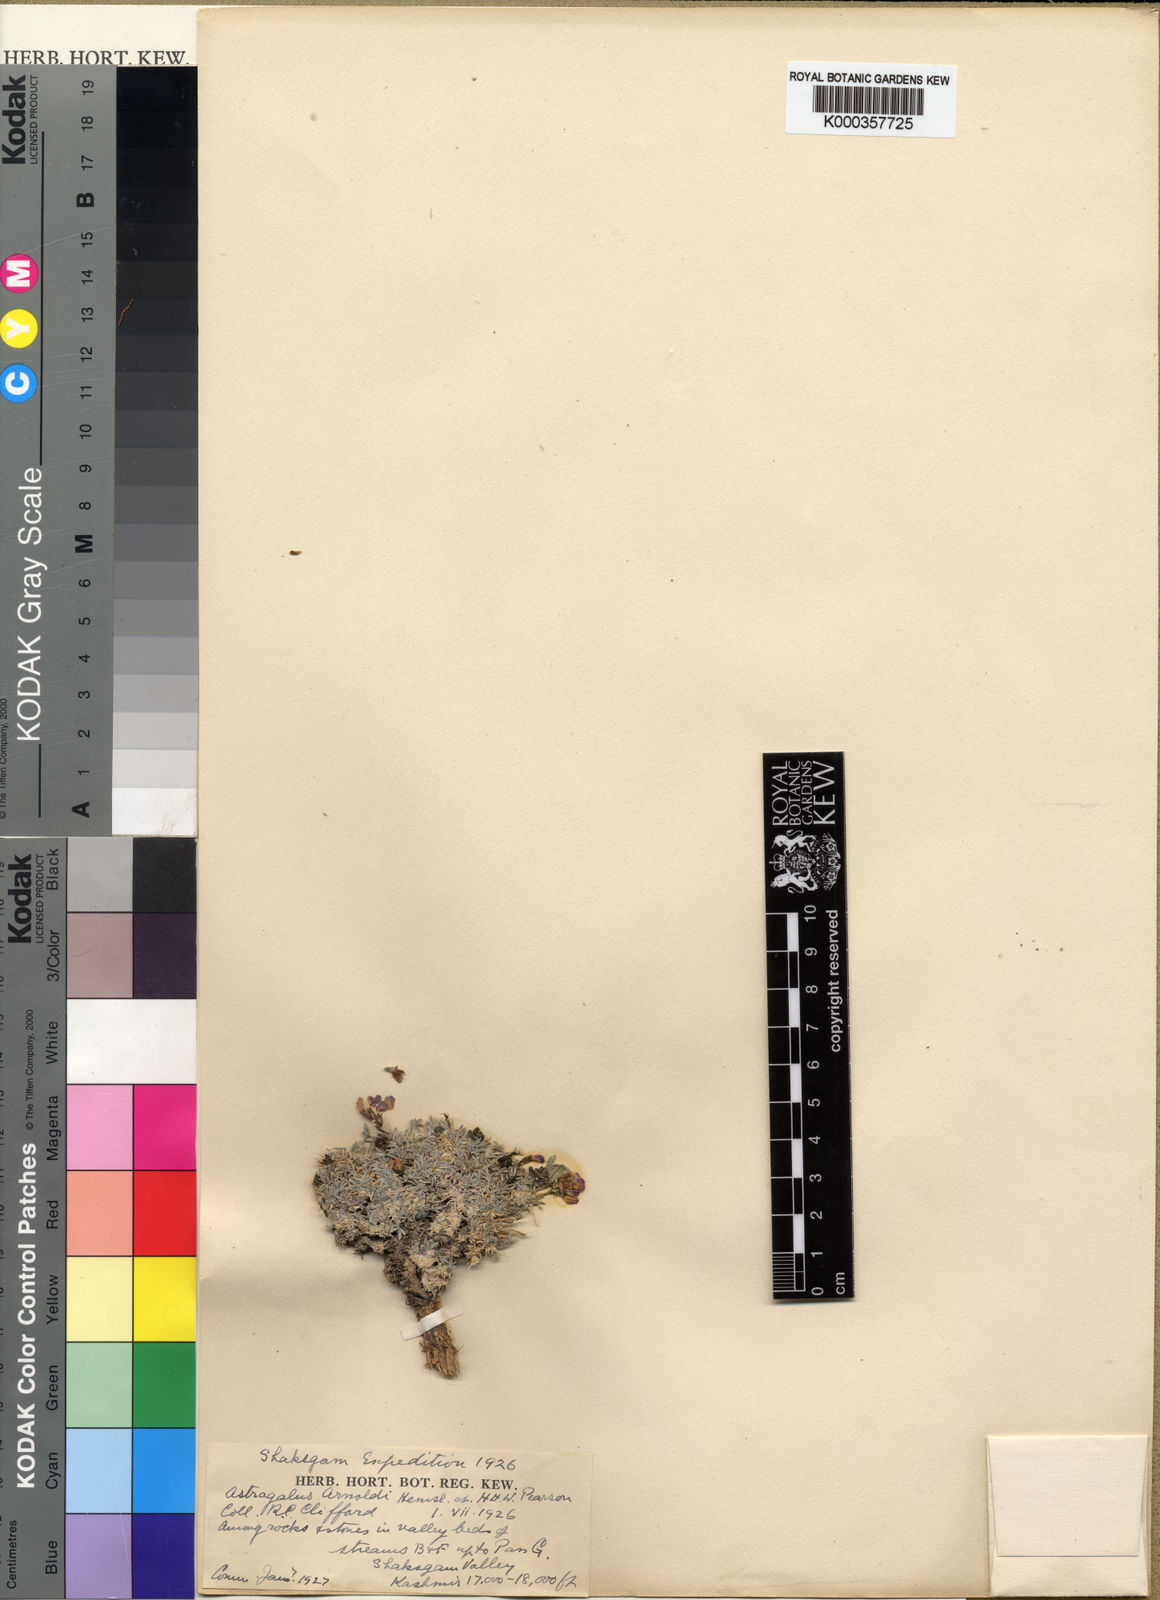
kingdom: Plantae
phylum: Tracheophyta
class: Magnoliopsida
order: Fabales
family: Fabaceae
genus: Astragalus
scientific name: Astragalus arnoldianus
